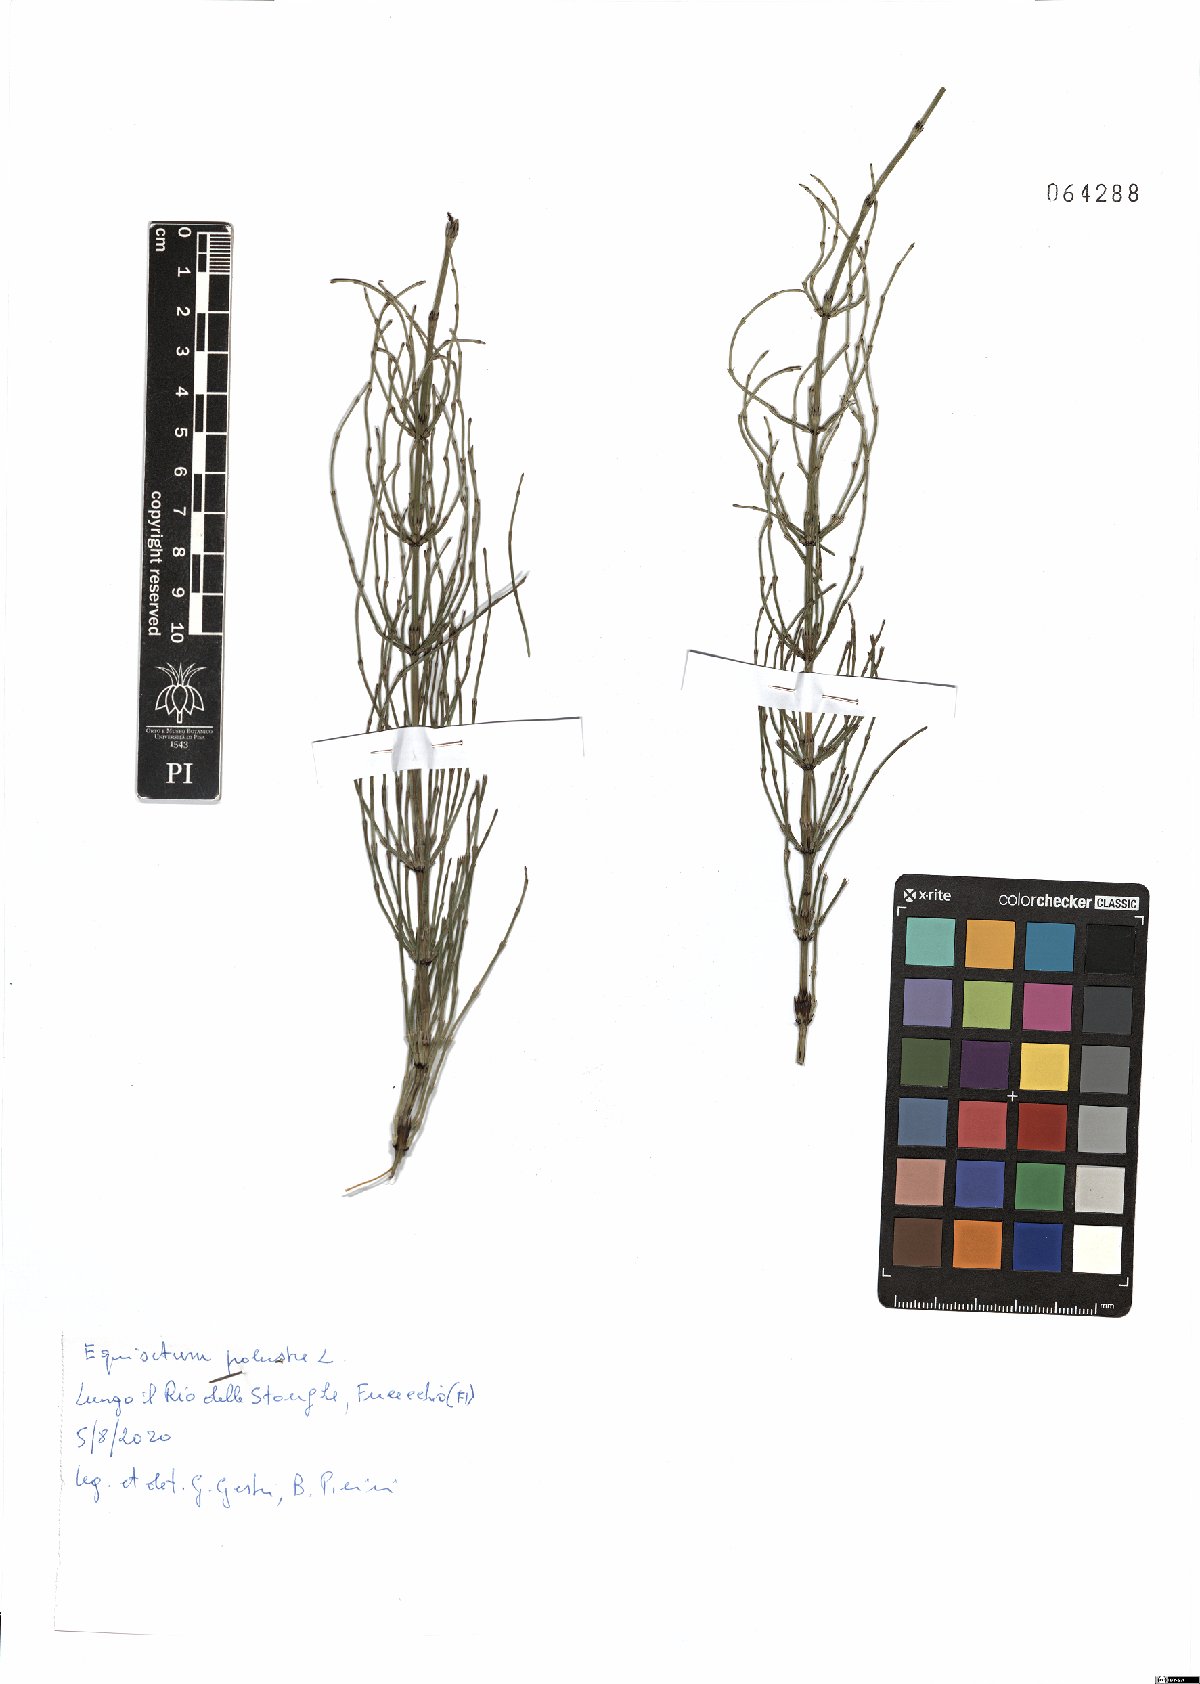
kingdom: Plantae
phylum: Tracheophyta
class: Polypodiopsida
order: Equisetales
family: Equisetaceae
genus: Equisetum
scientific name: Equisetum palustre
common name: Marsh horsetail
